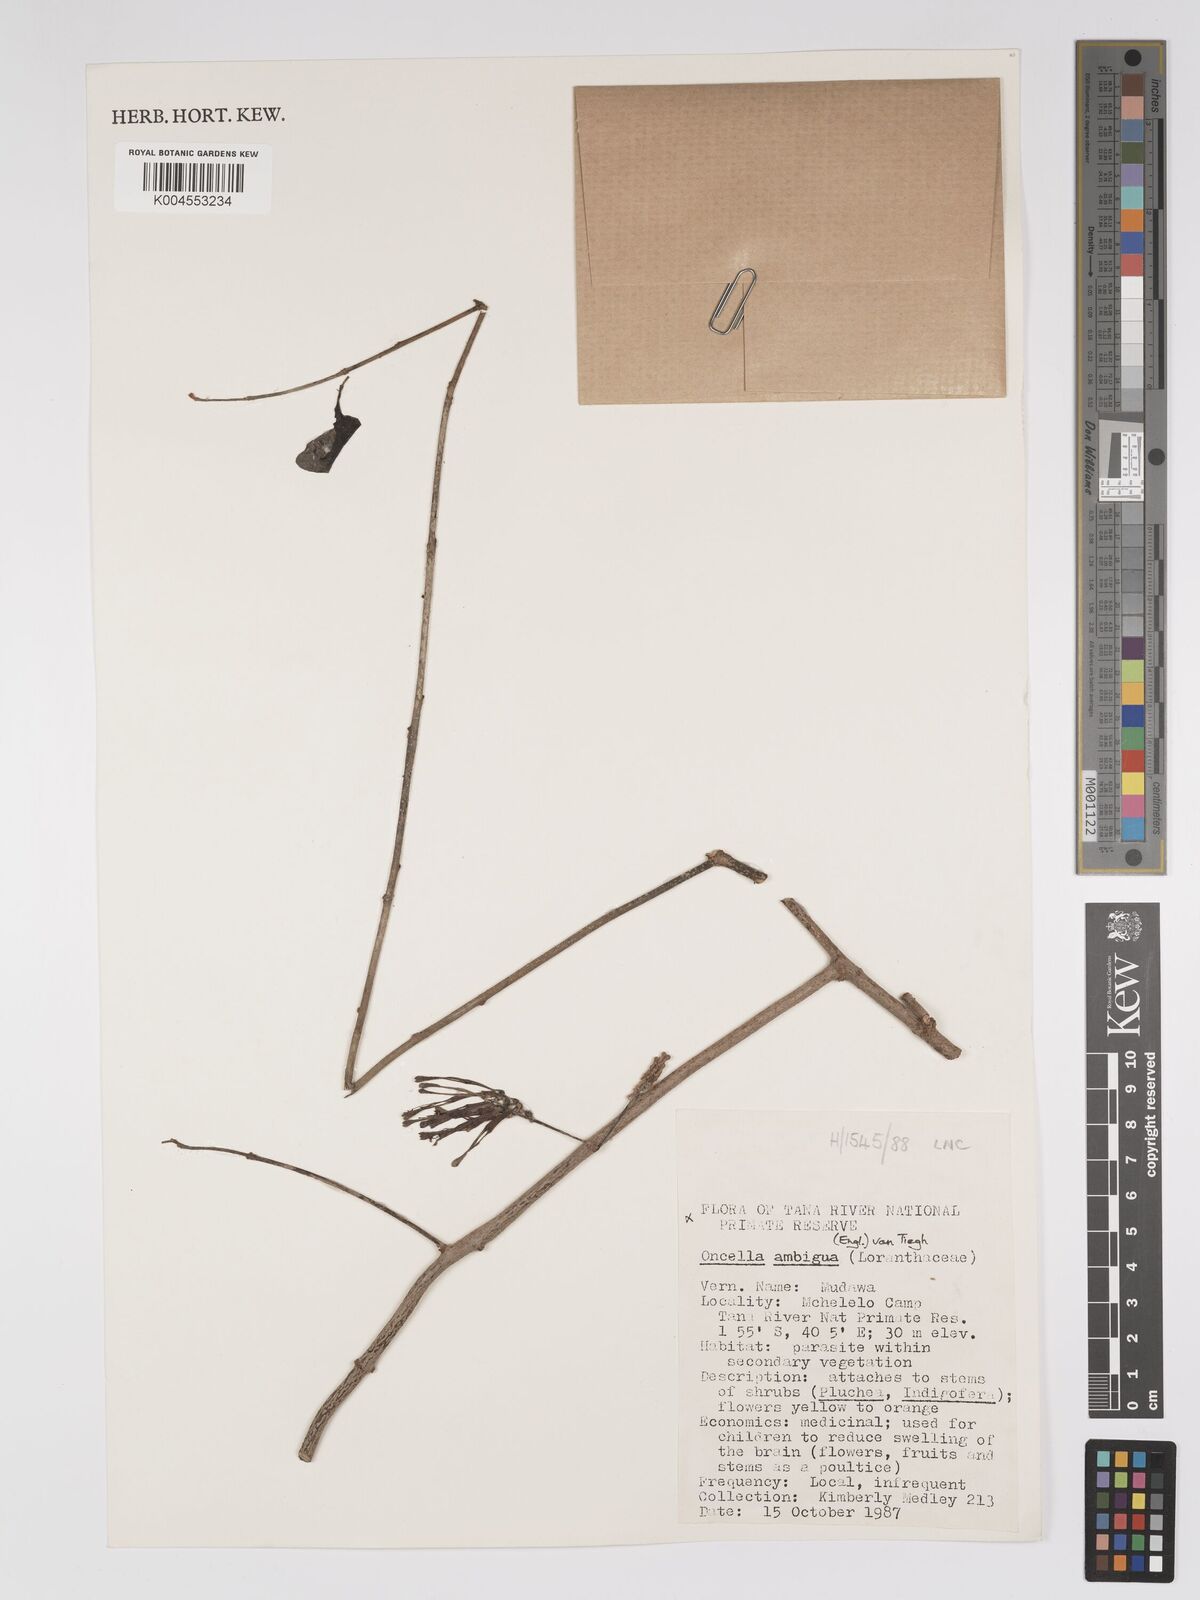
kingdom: Plantae
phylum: Tracheophyta
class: Magnoliopsida
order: Santalales
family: Loranthaceae
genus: Oncella
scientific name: Oncella ambigua
